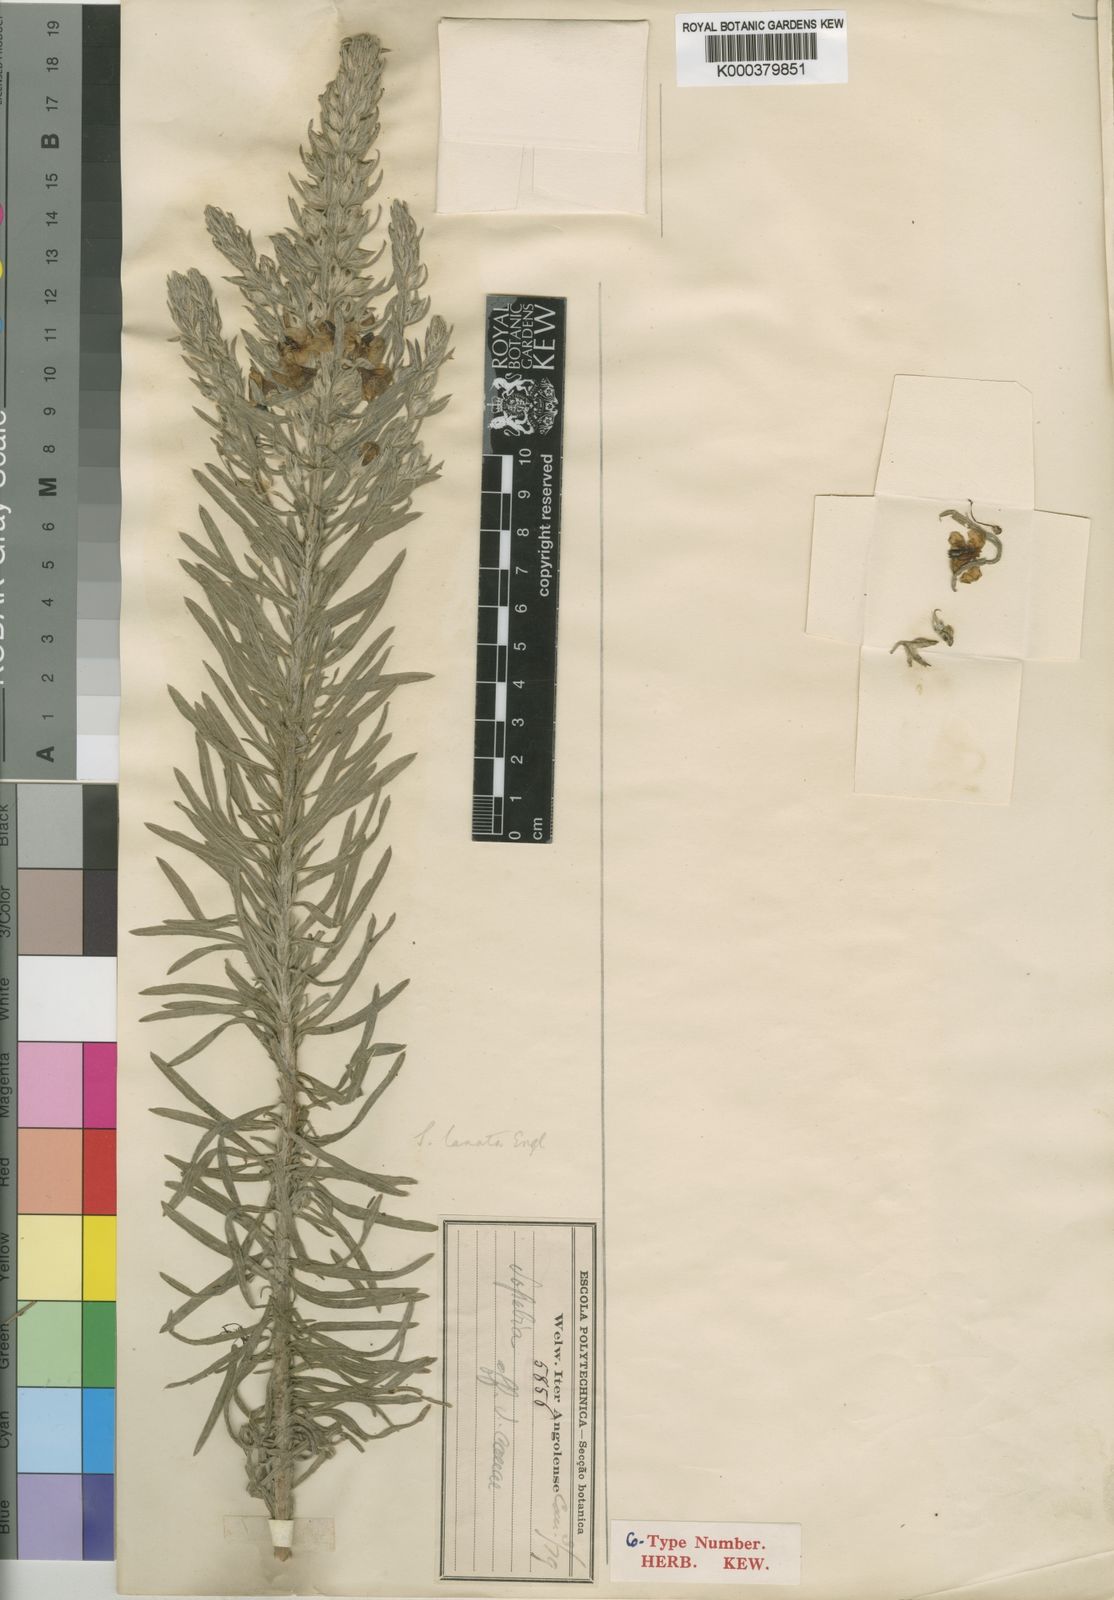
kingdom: Plantae
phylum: Tracheophyta
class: Magnoliopsida
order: Lamiales
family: Orobanchaceae
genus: Sopubia
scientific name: Sopubia lanata
